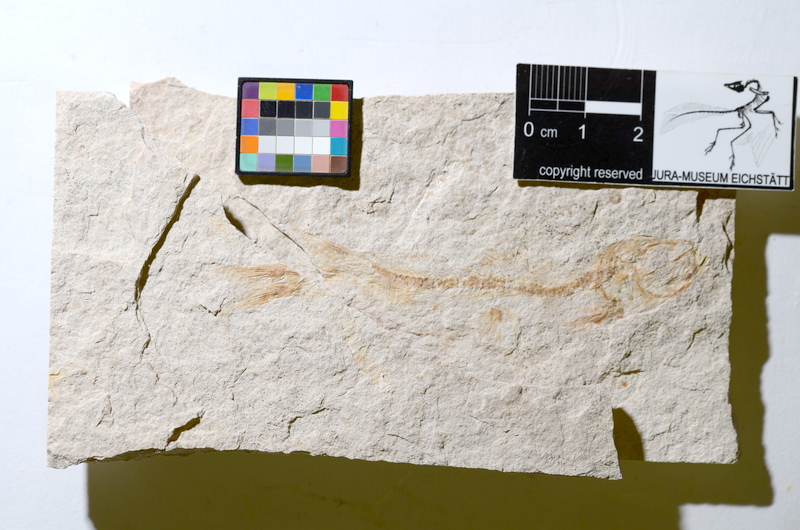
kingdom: Animalia
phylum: Chordata
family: Ascalaboidae
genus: Tharsis
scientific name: Tharsis dubius
